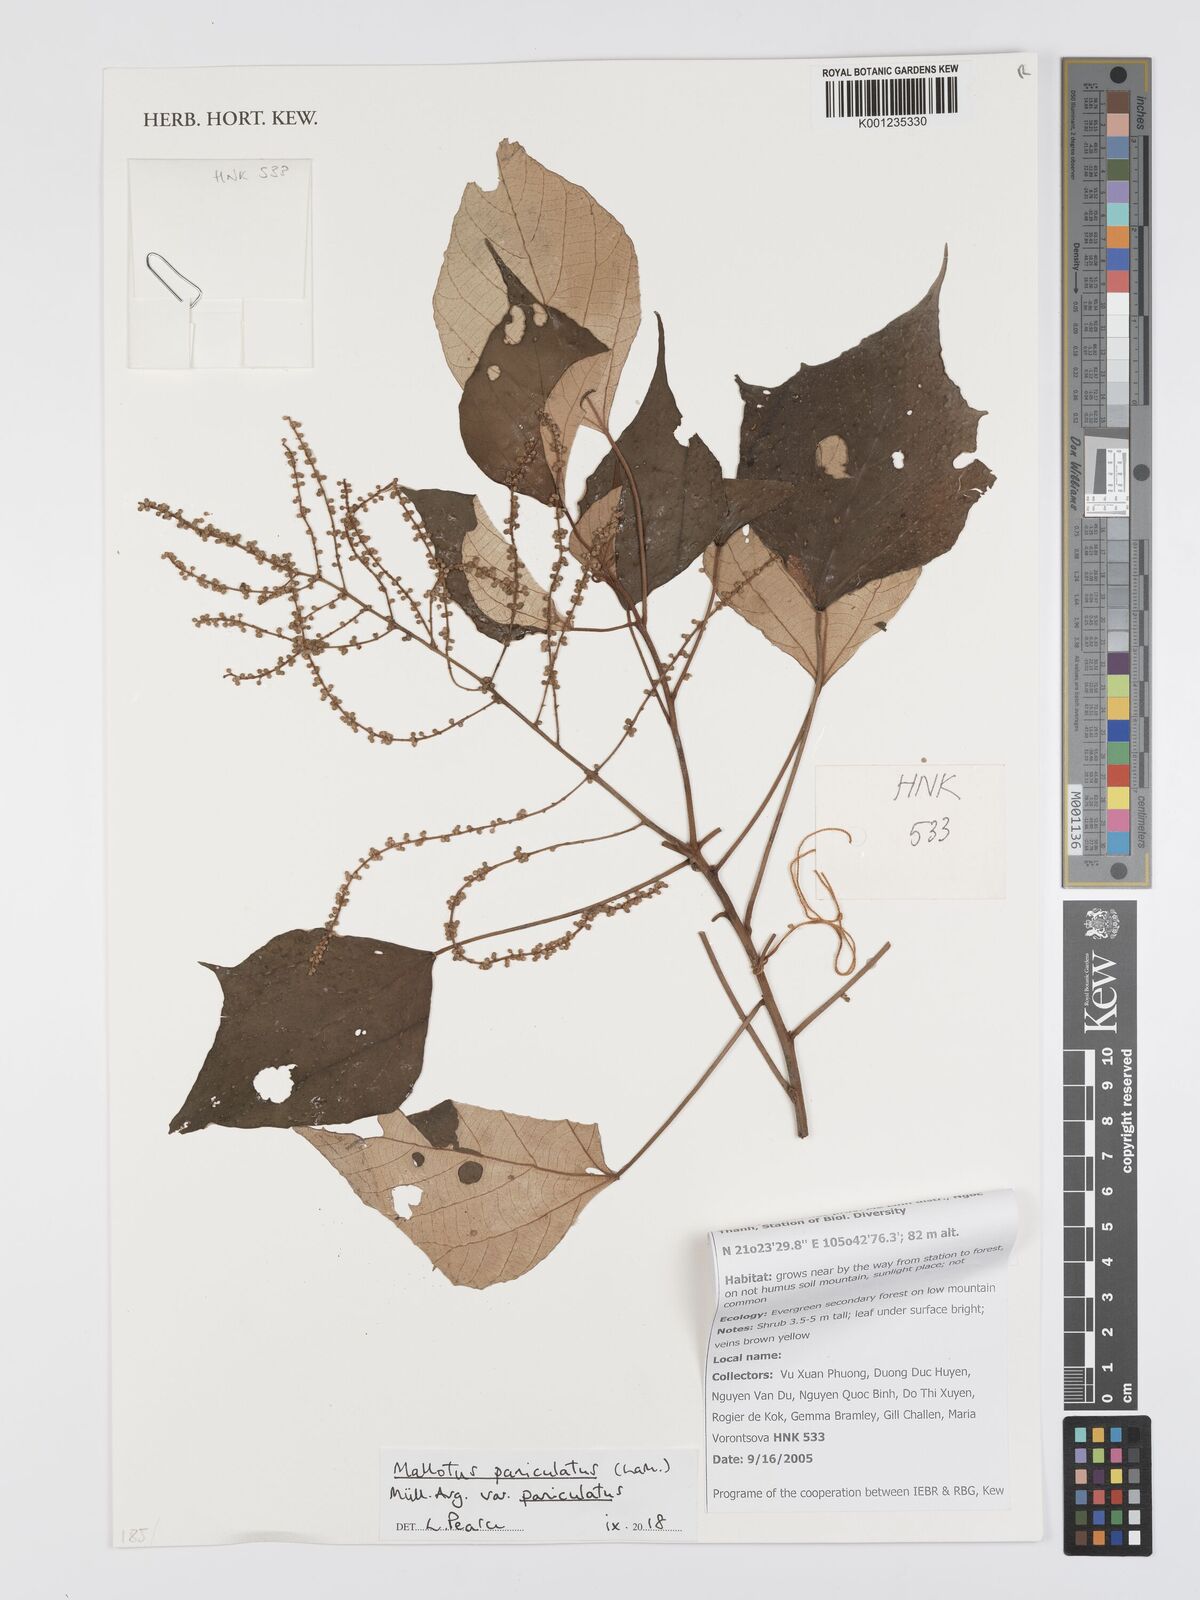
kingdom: Plantae
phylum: Tracheophyta
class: Magnoliopsida
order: Malpighiales
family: Euphorbiaceae
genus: Mallotus
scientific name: Mallotus paniculatus
